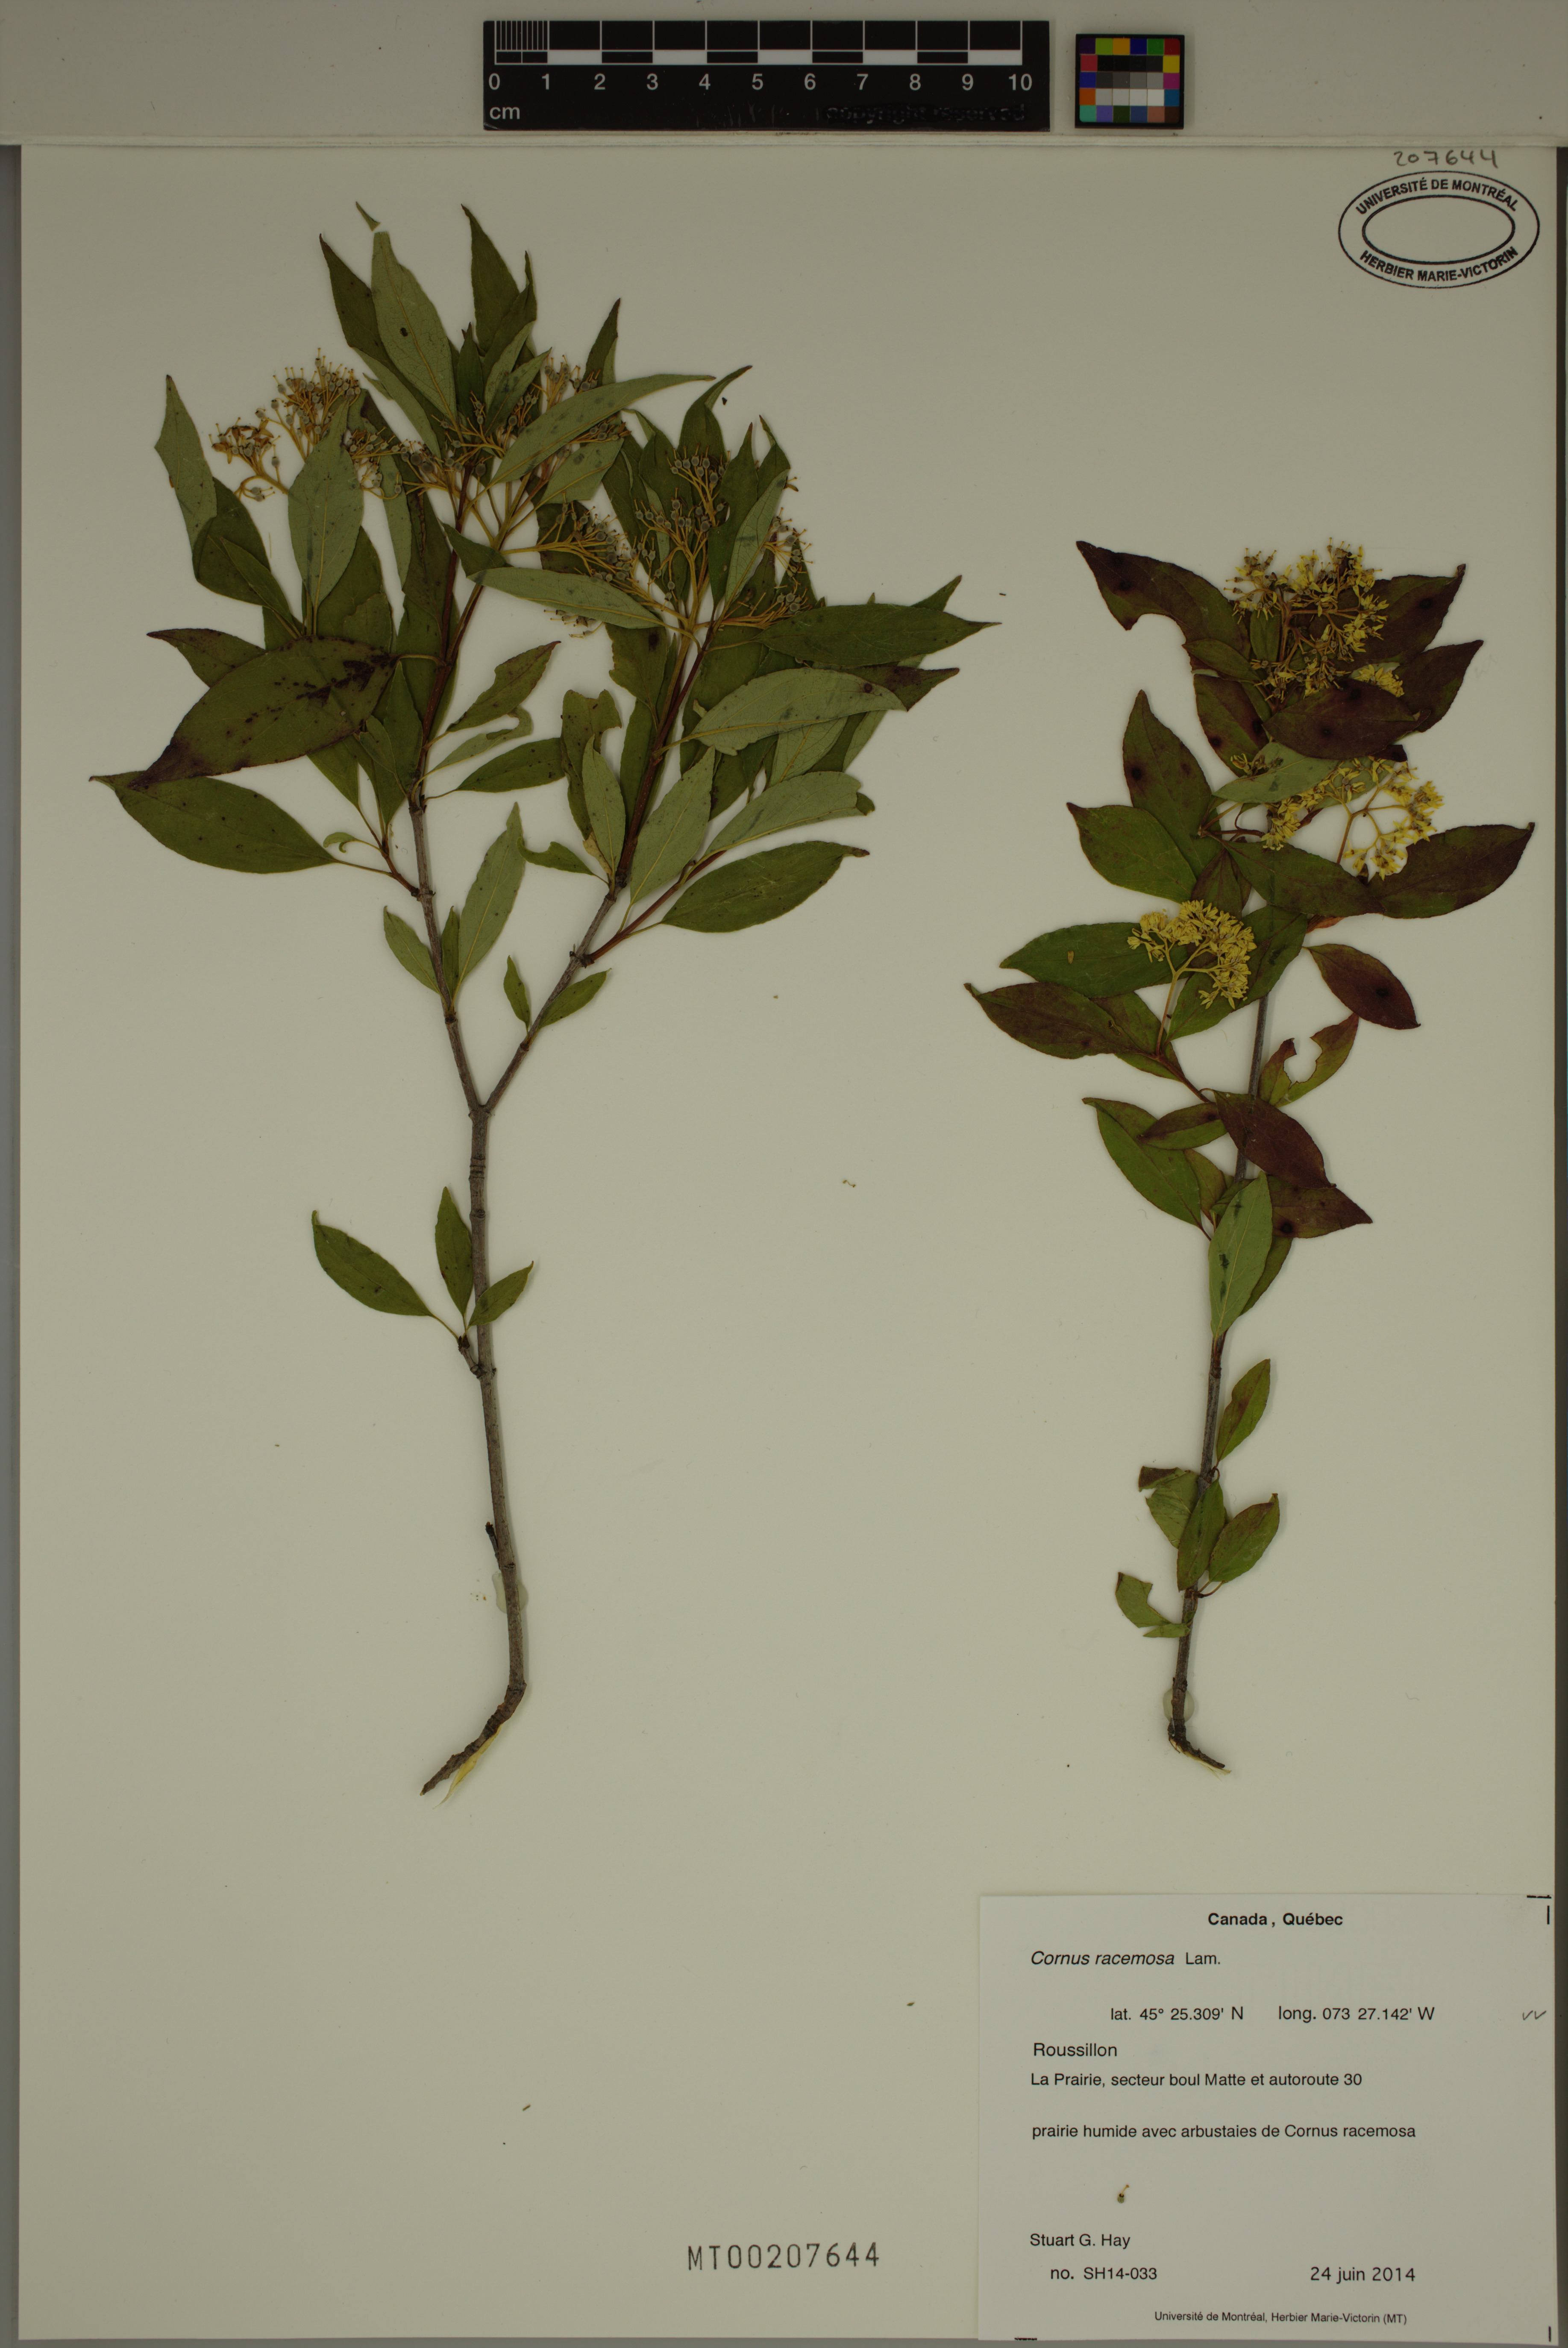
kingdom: Plantae
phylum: Tracheophyta
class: Magnoliopsida
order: Cornales
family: Cornaceae
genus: Cornus
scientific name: Cornus racemosa
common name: Panicled dogwood
